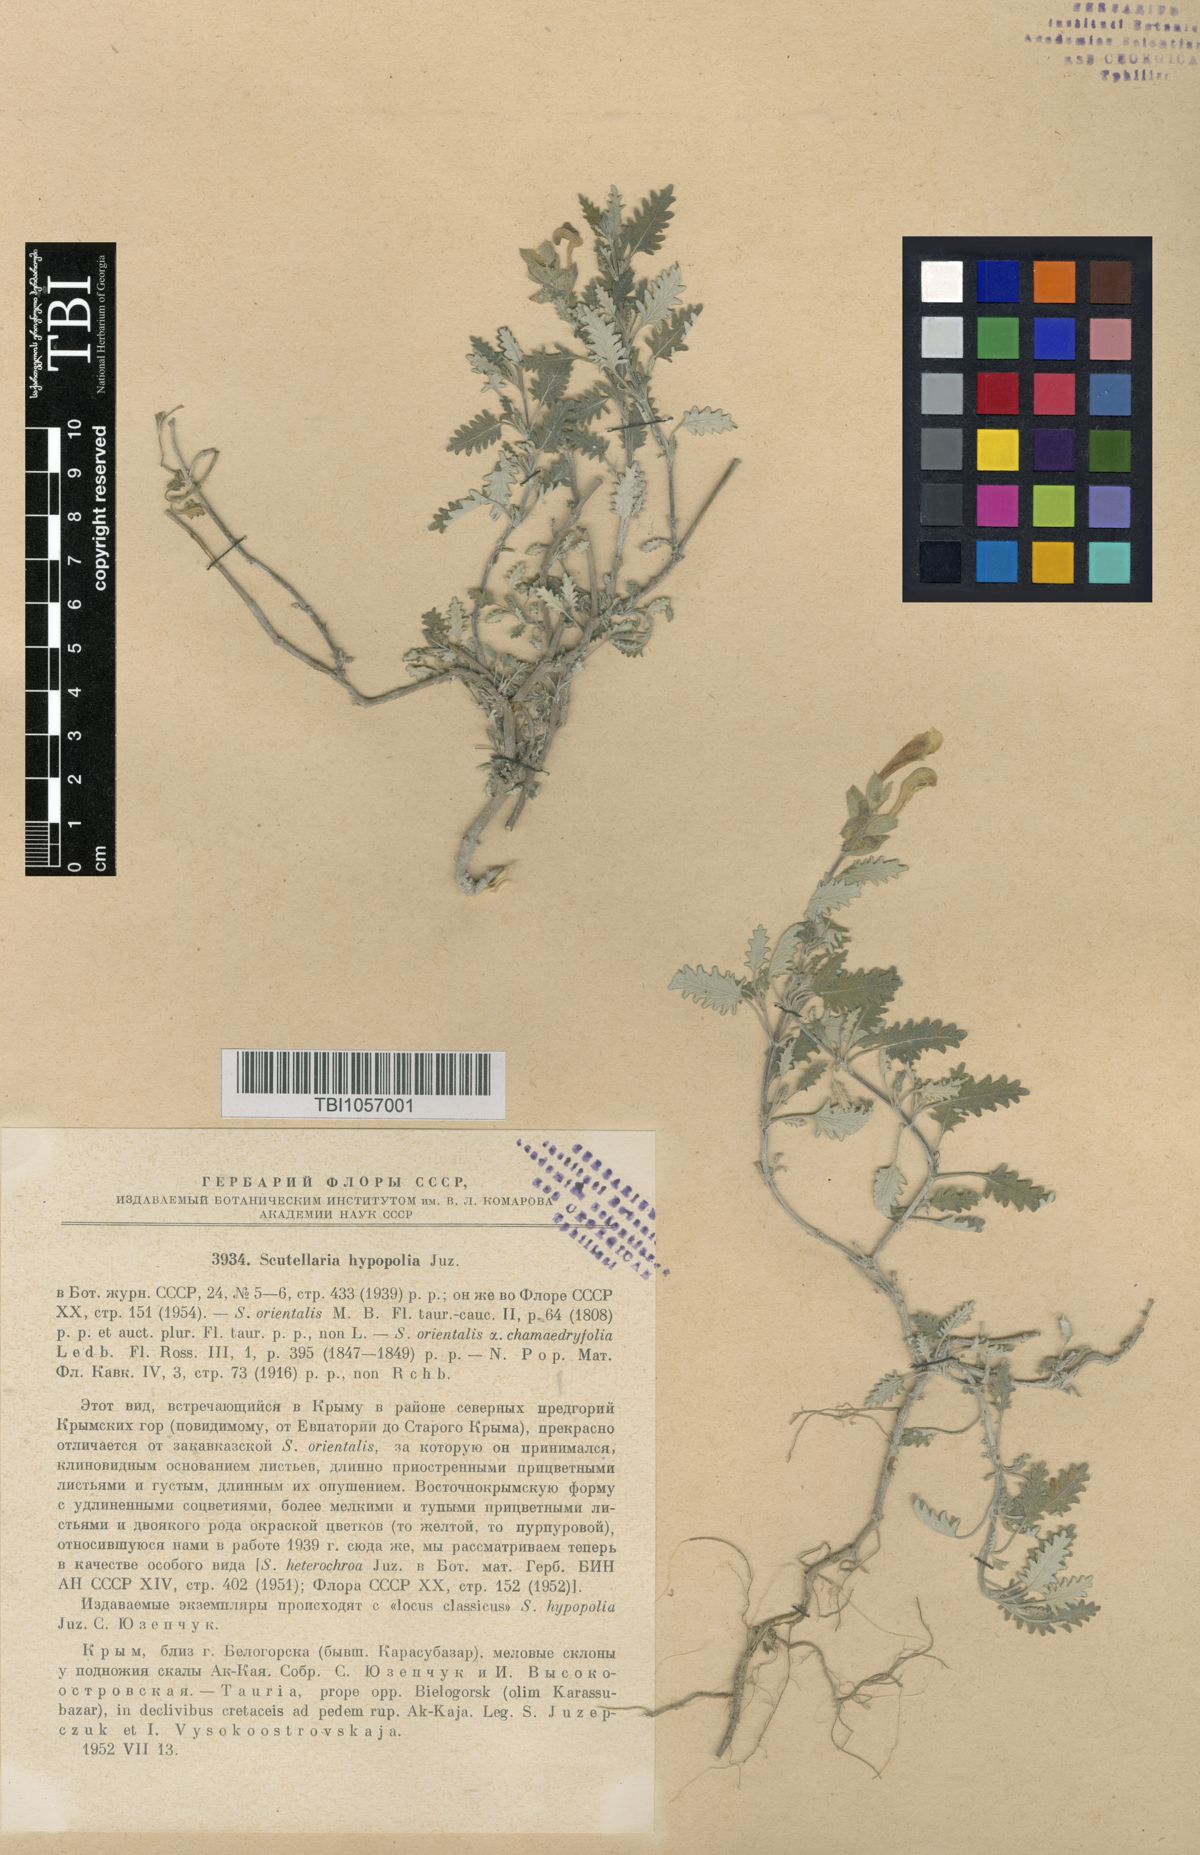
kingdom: Plantae
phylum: Tracheophyta
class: Magnoliopsida
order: Lamiales
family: Lamiaceae
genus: Scutellaria
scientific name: Scutellaria orientalis
